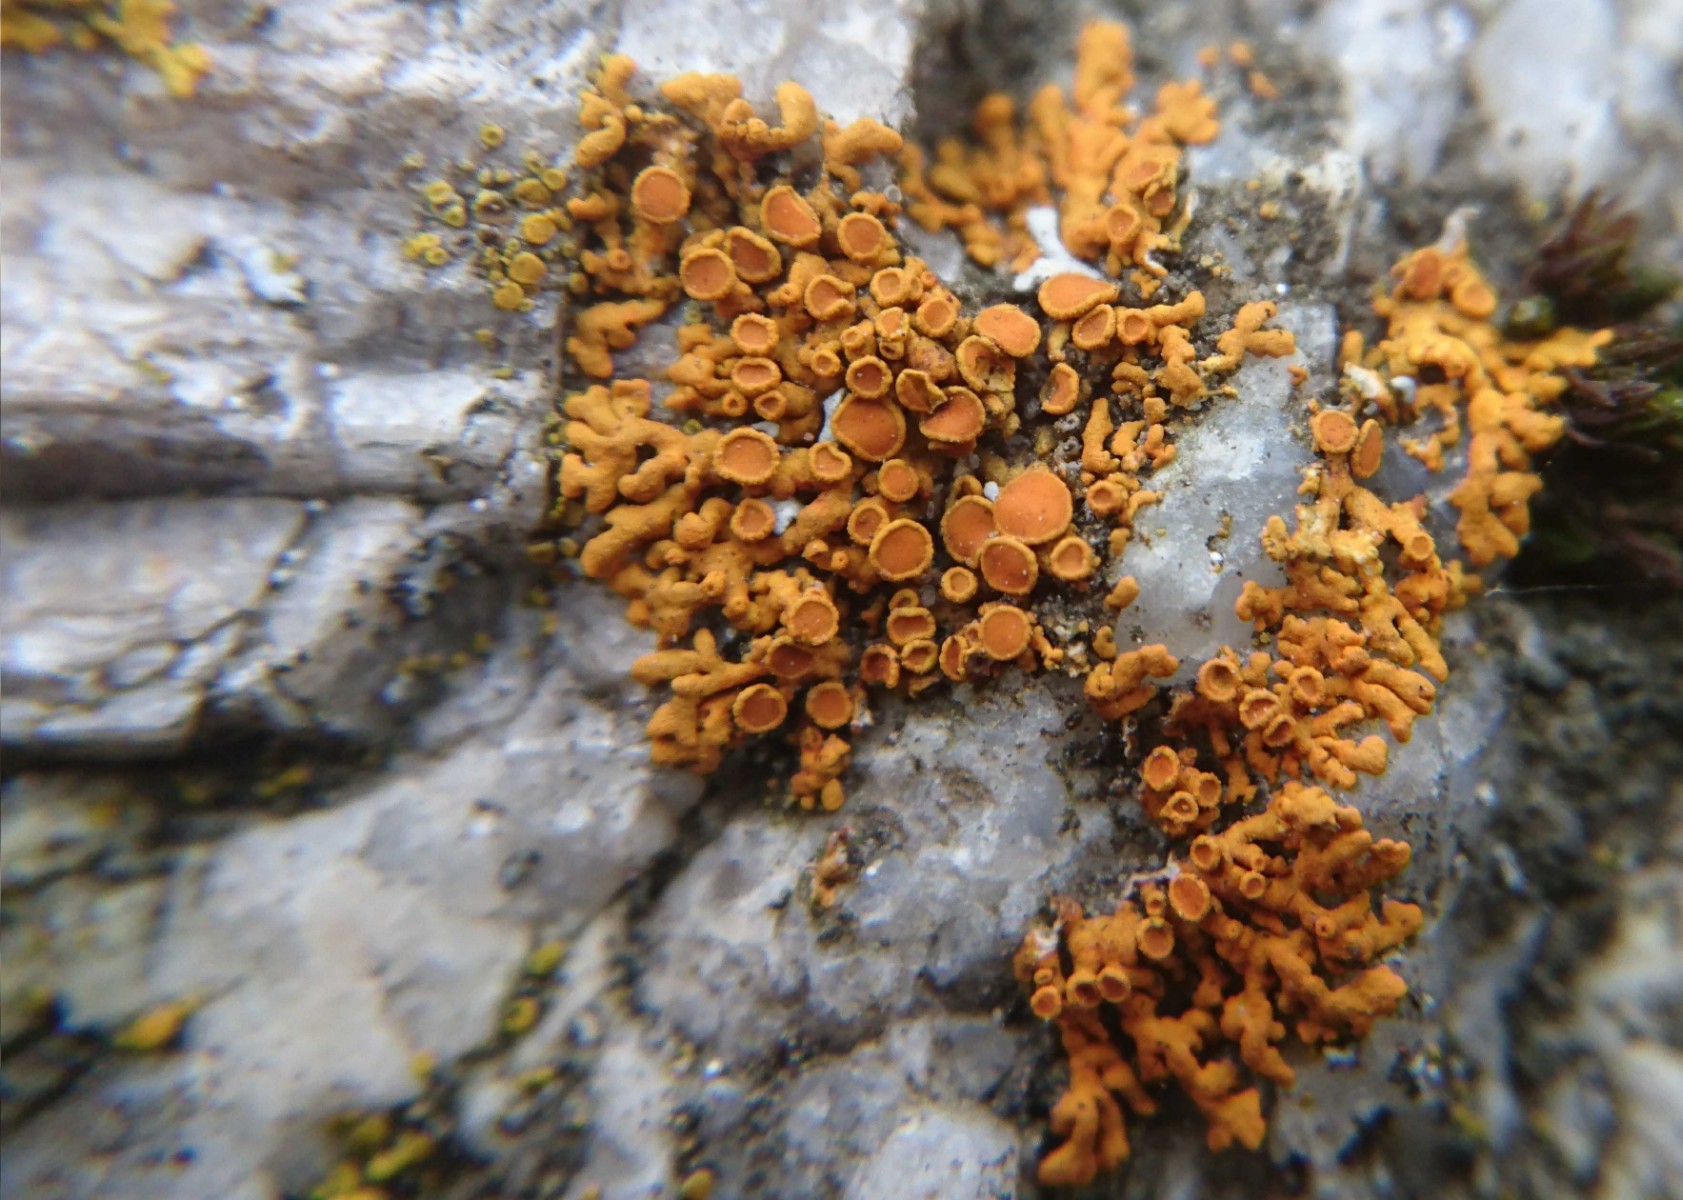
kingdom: Fungi
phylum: Ascomycota
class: Lecanoromycetes
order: Teloschistales
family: Teloschistaceae
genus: Xanthoria
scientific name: Xanthoria elegans
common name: fjeld-væggelav
